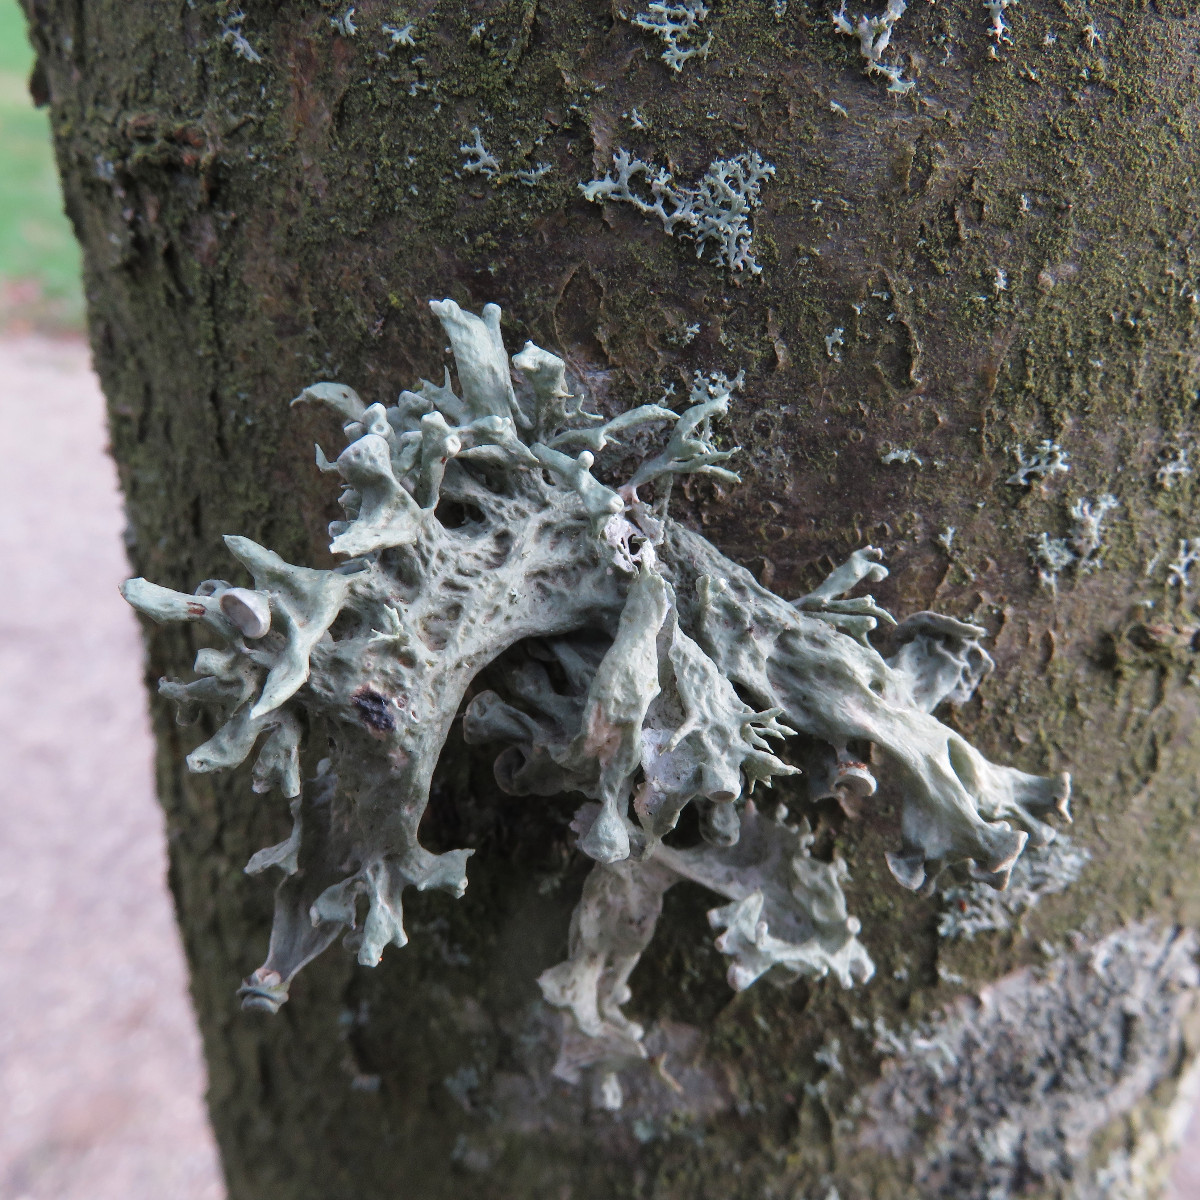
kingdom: Fungi
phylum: Ascomycota
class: Lecanoromycetes
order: Lecanorales
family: Ramalinaceae
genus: Ramalina
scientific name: Ramalina fastigiata
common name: tue-grenlav
